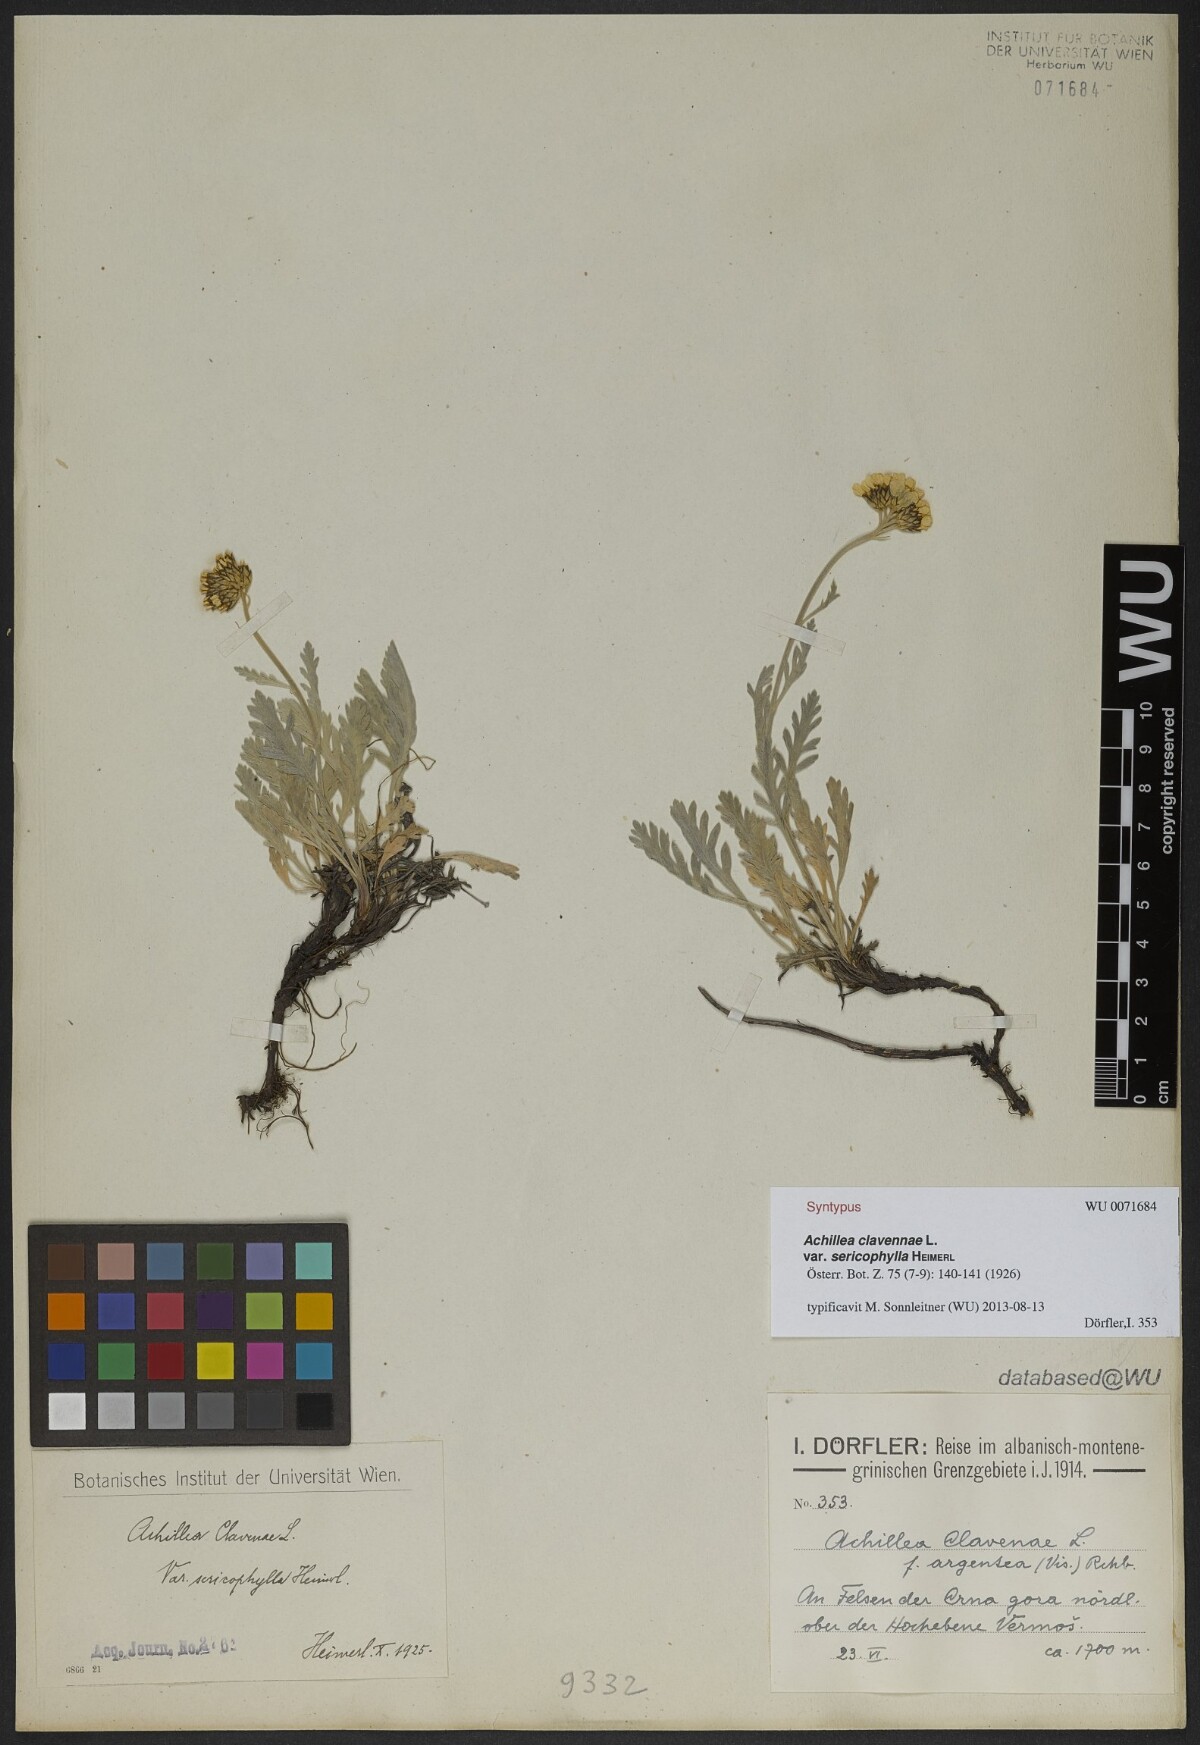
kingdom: Plantae
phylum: Tracheophyta
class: Magnoliopsida
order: Asterales
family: Asteraceae
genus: Achillea
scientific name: Achillea clavennae
